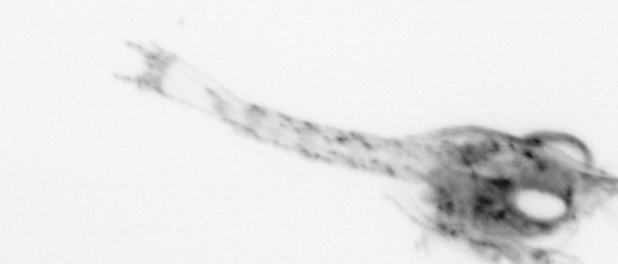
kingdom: Animalia
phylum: Arthropoda
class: Malacostraca
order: Decapoda
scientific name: Decapoda
